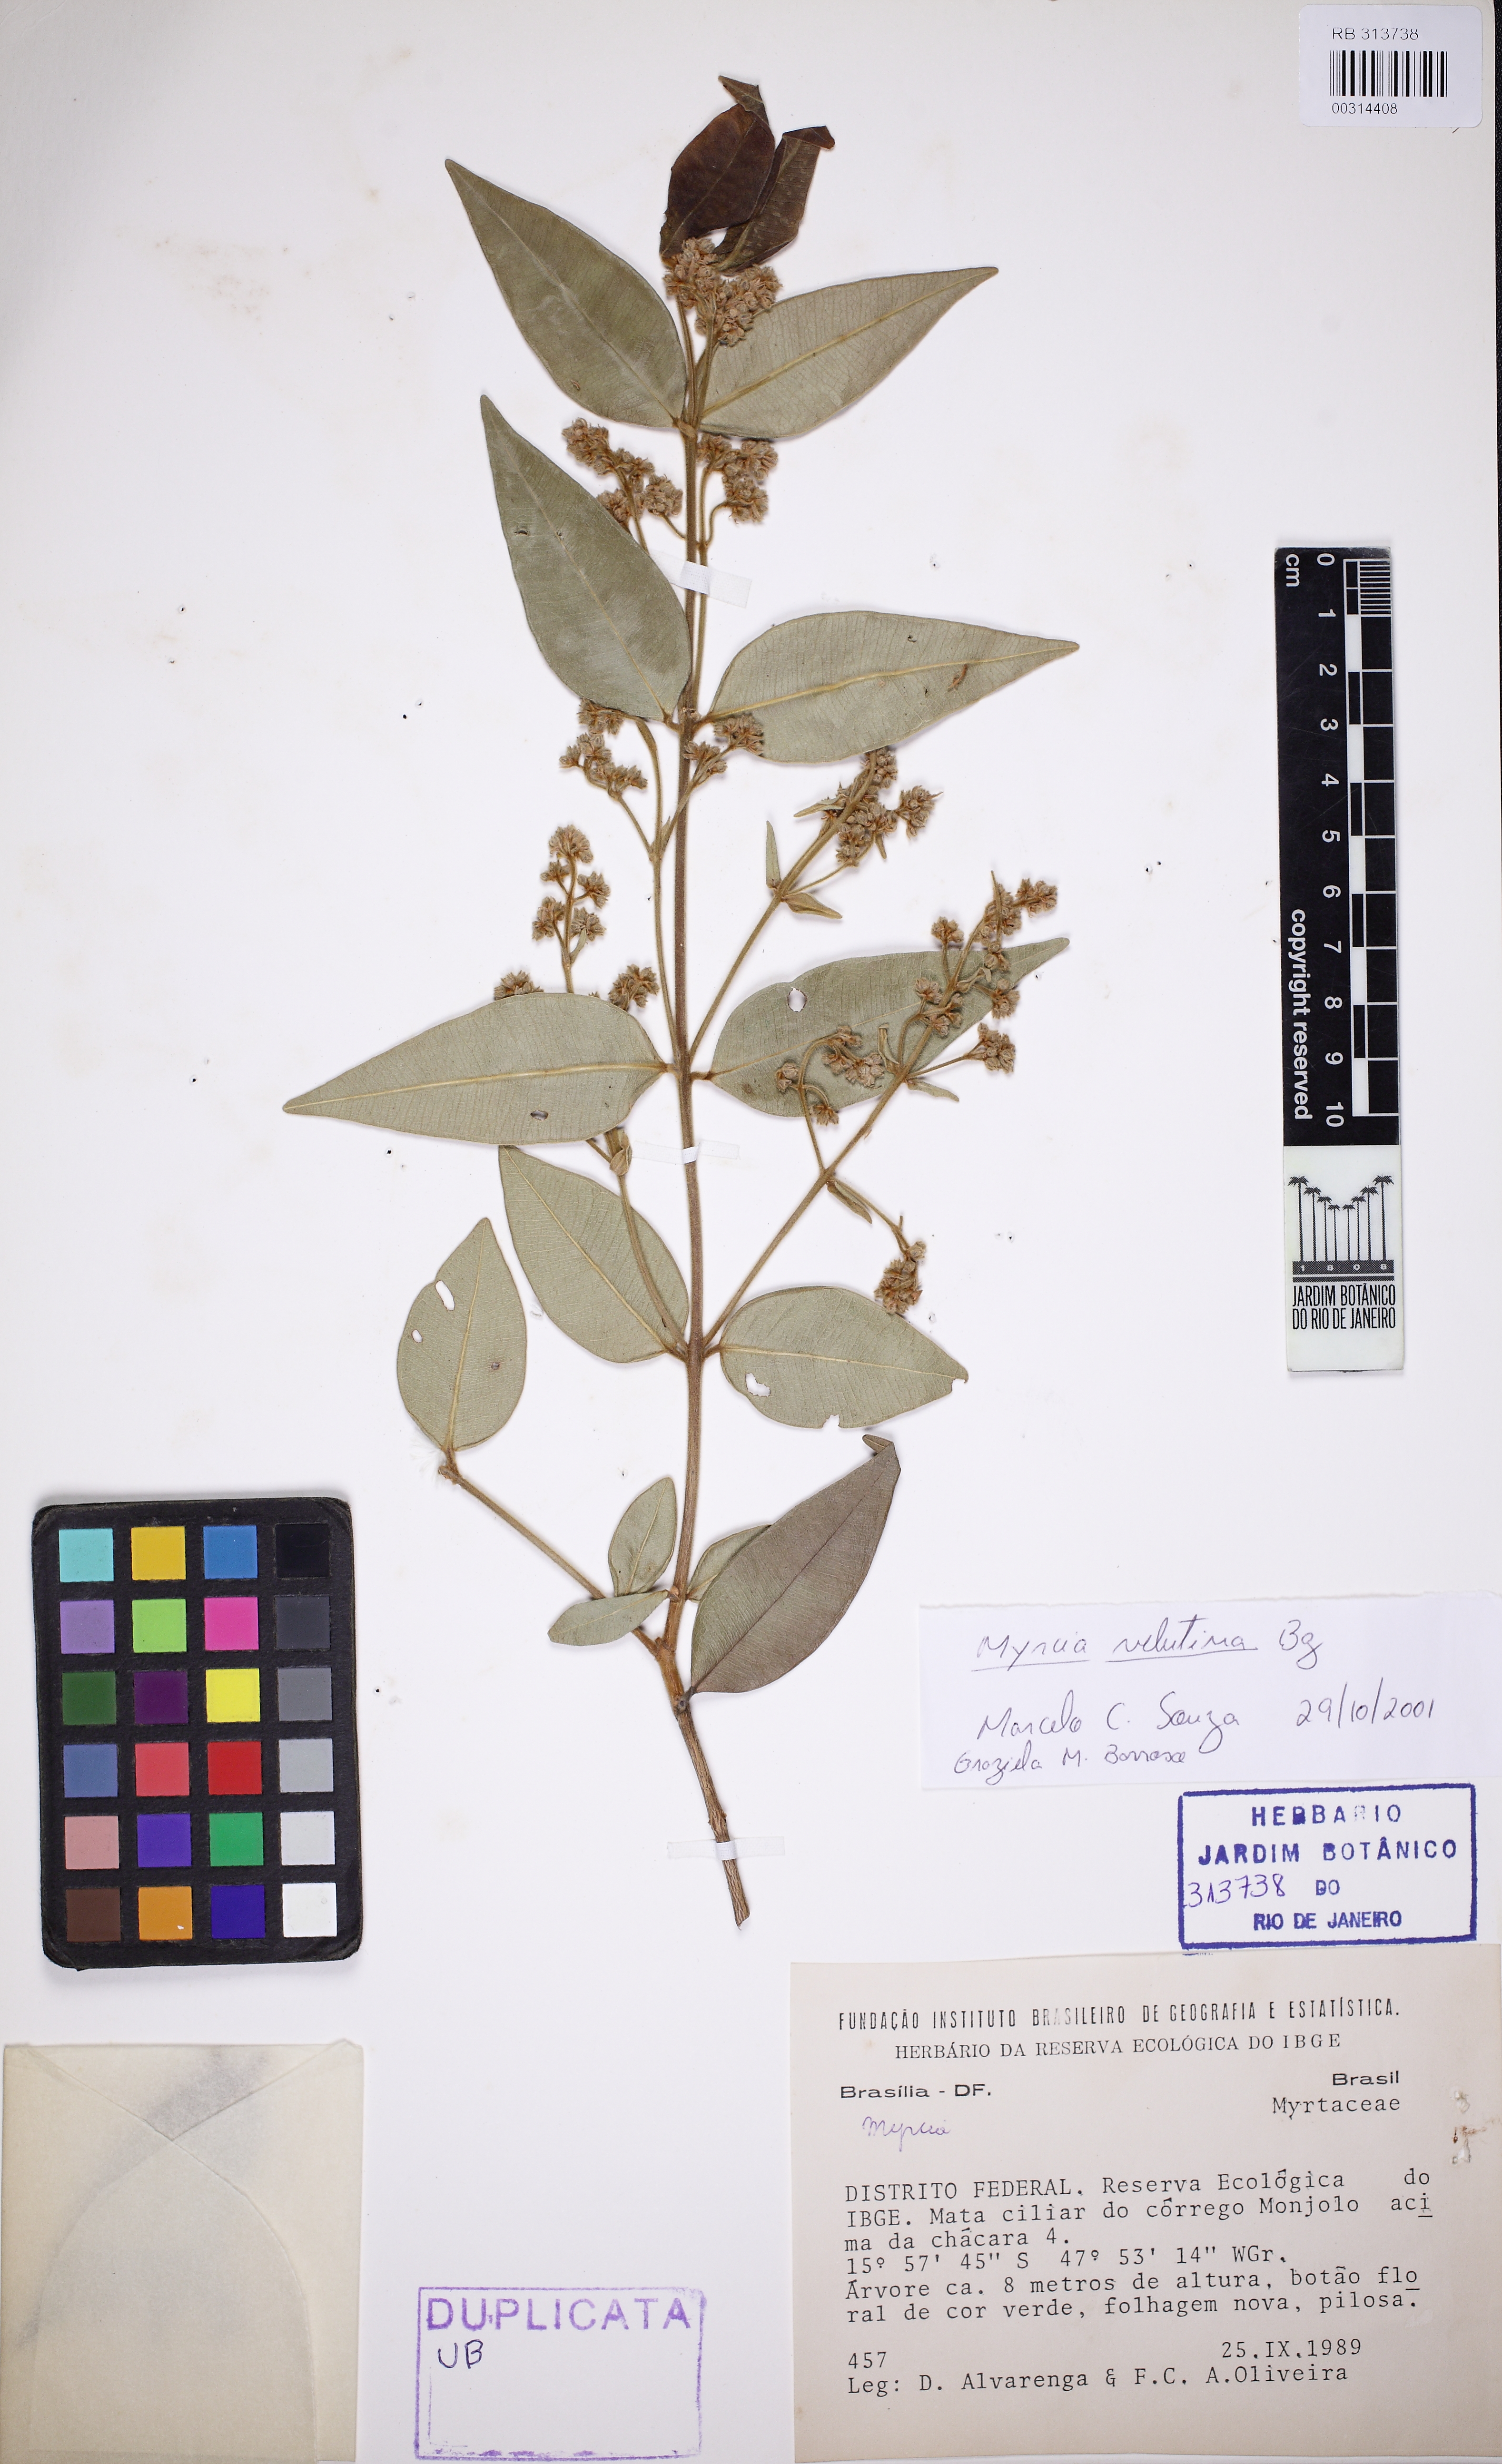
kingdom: Plantae
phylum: Tracheophyta
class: Magnoliopsida
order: Myrtales
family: Myrtaceae
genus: Myrcia
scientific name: Myrcia splendens
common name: Surinam cherry
